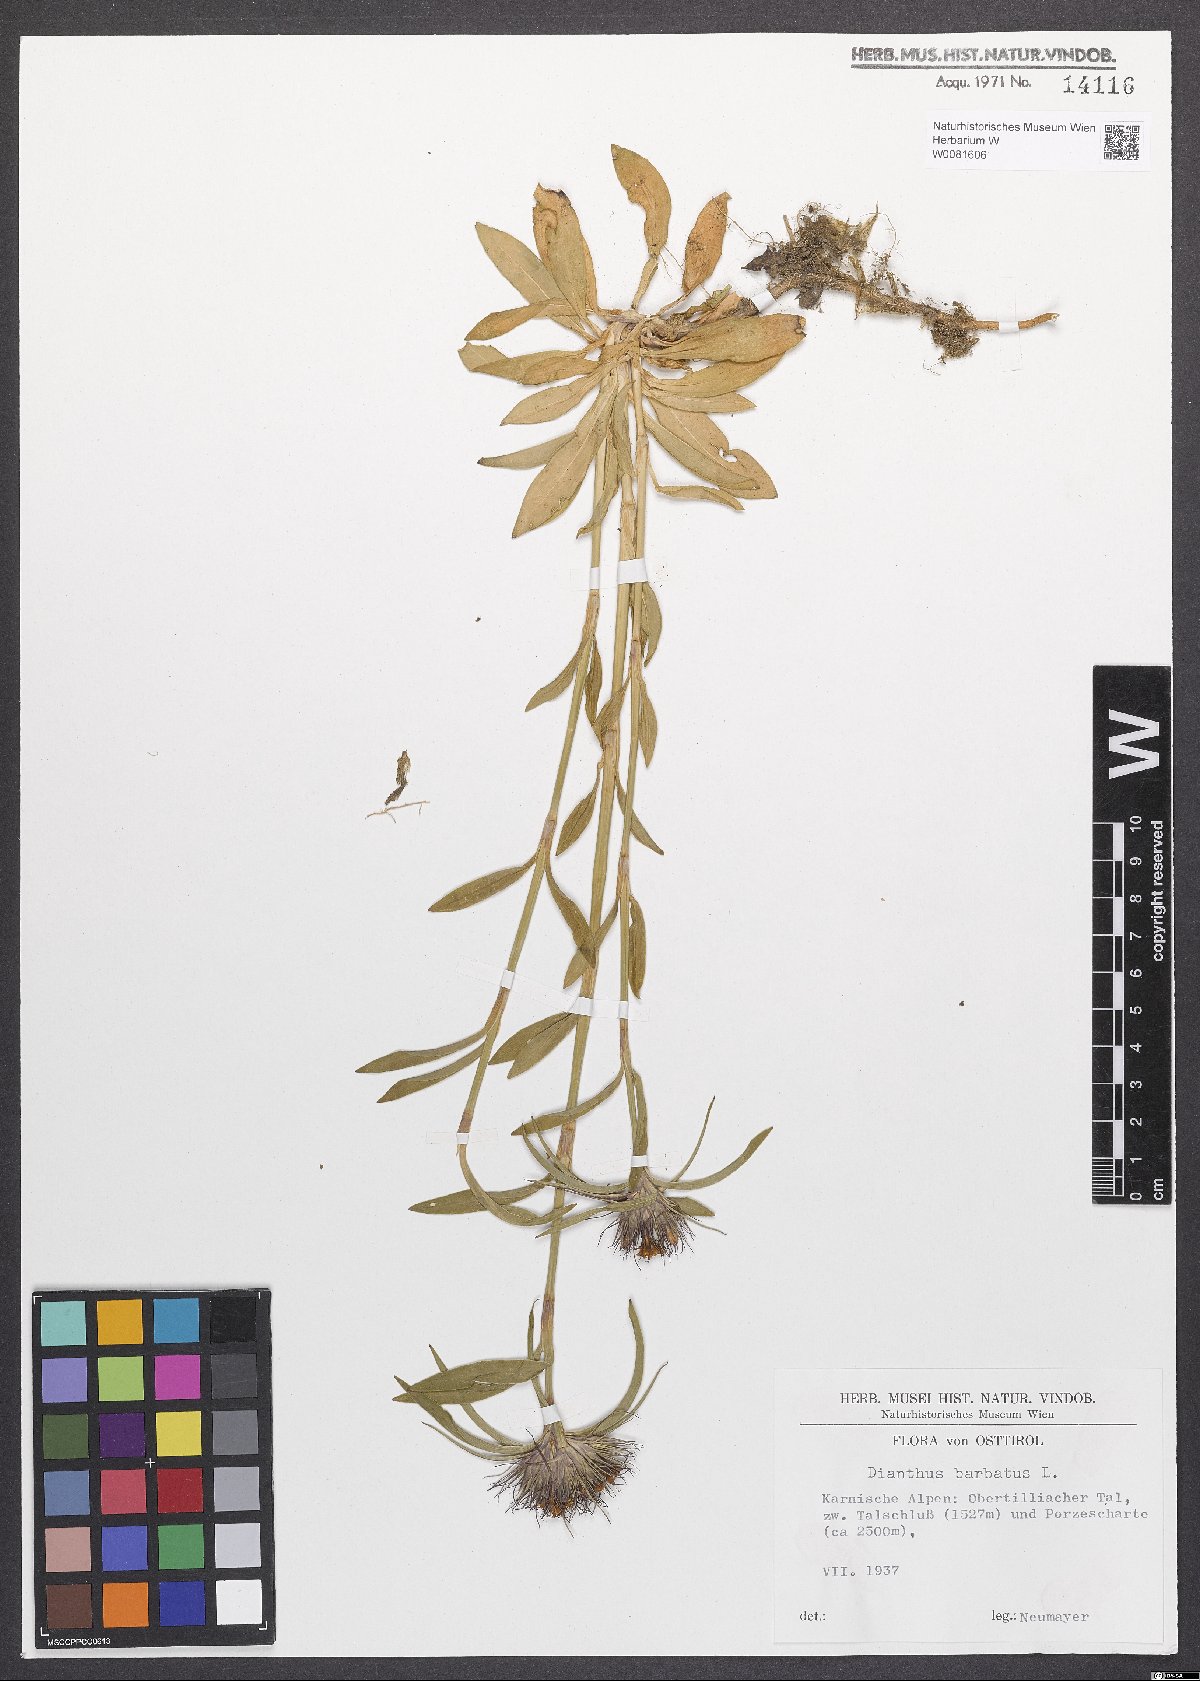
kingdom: Plantae
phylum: Tracheophyta
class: Magnoliopsida
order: Caryophyllales
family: Caryophyllaceae
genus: Dianthus
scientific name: Dianthus barbatus
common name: Sweet-william
